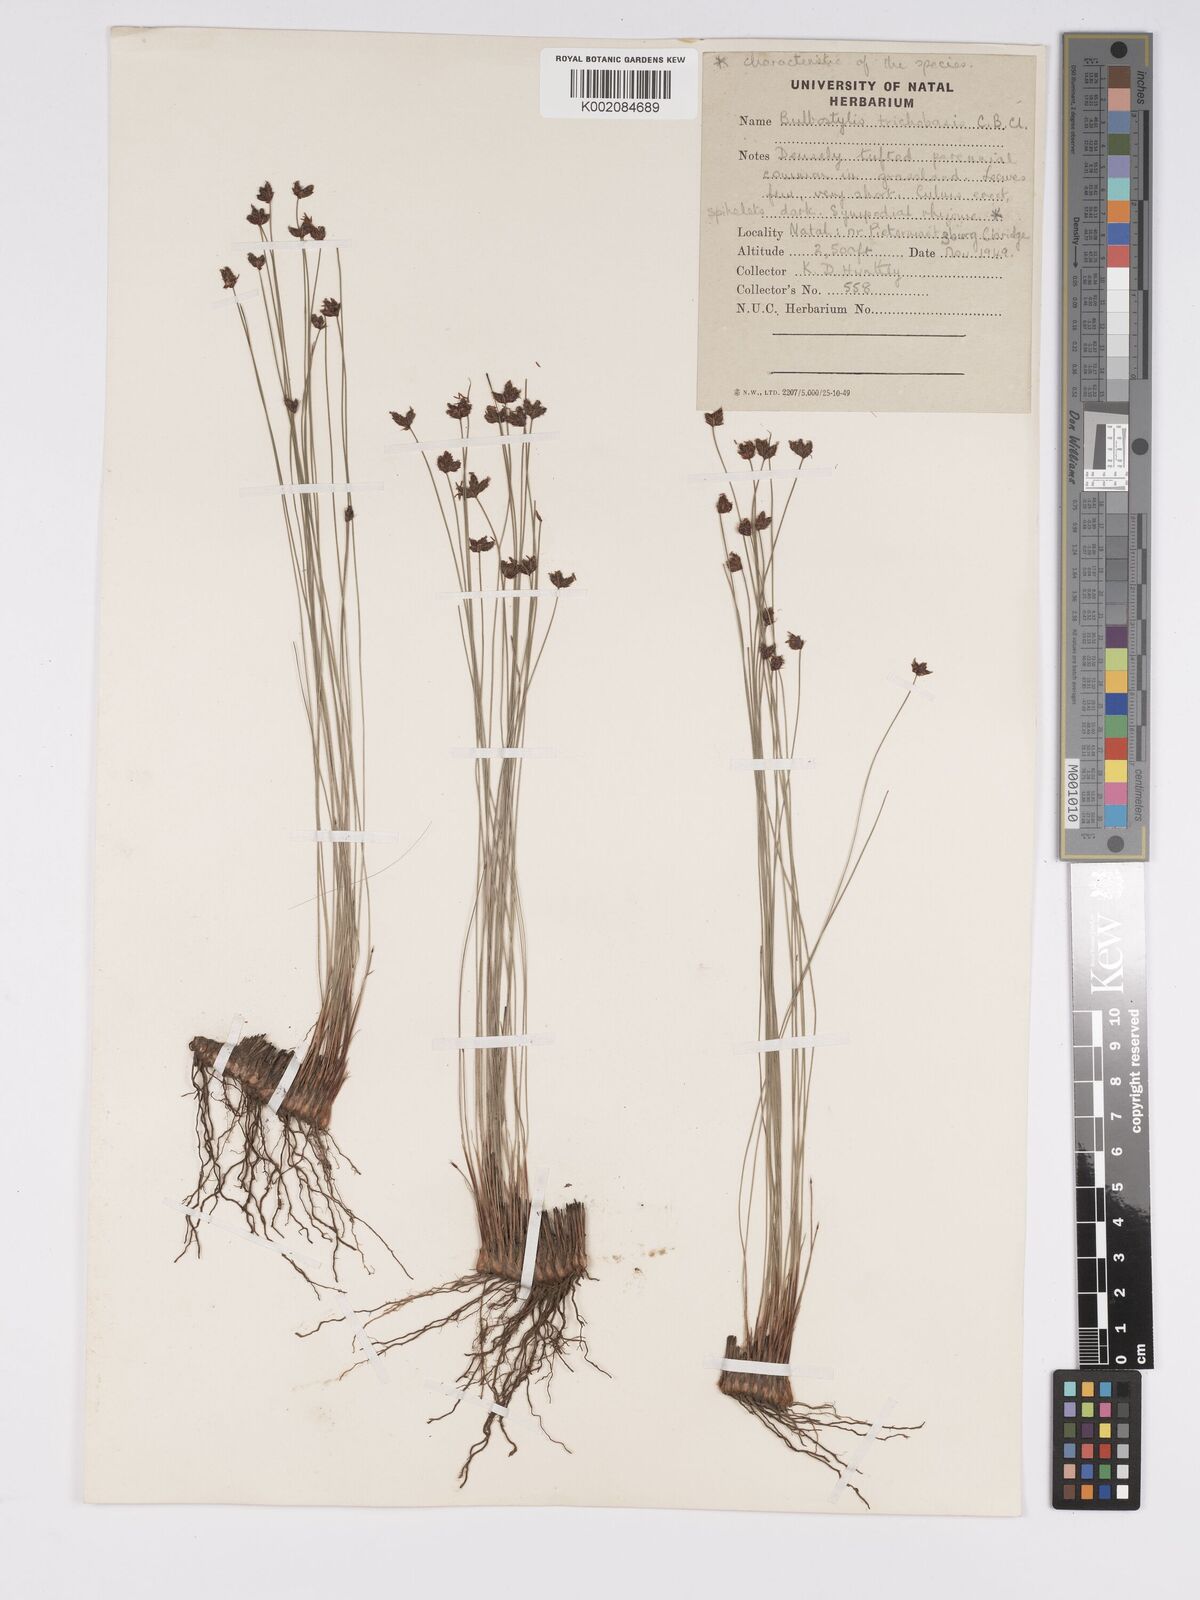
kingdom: Plantae
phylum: Tracheophyta
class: Liliopsida
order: Poales
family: Cyperaceae
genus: Bulbostylis
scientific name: Bulbostylis trichobasis
